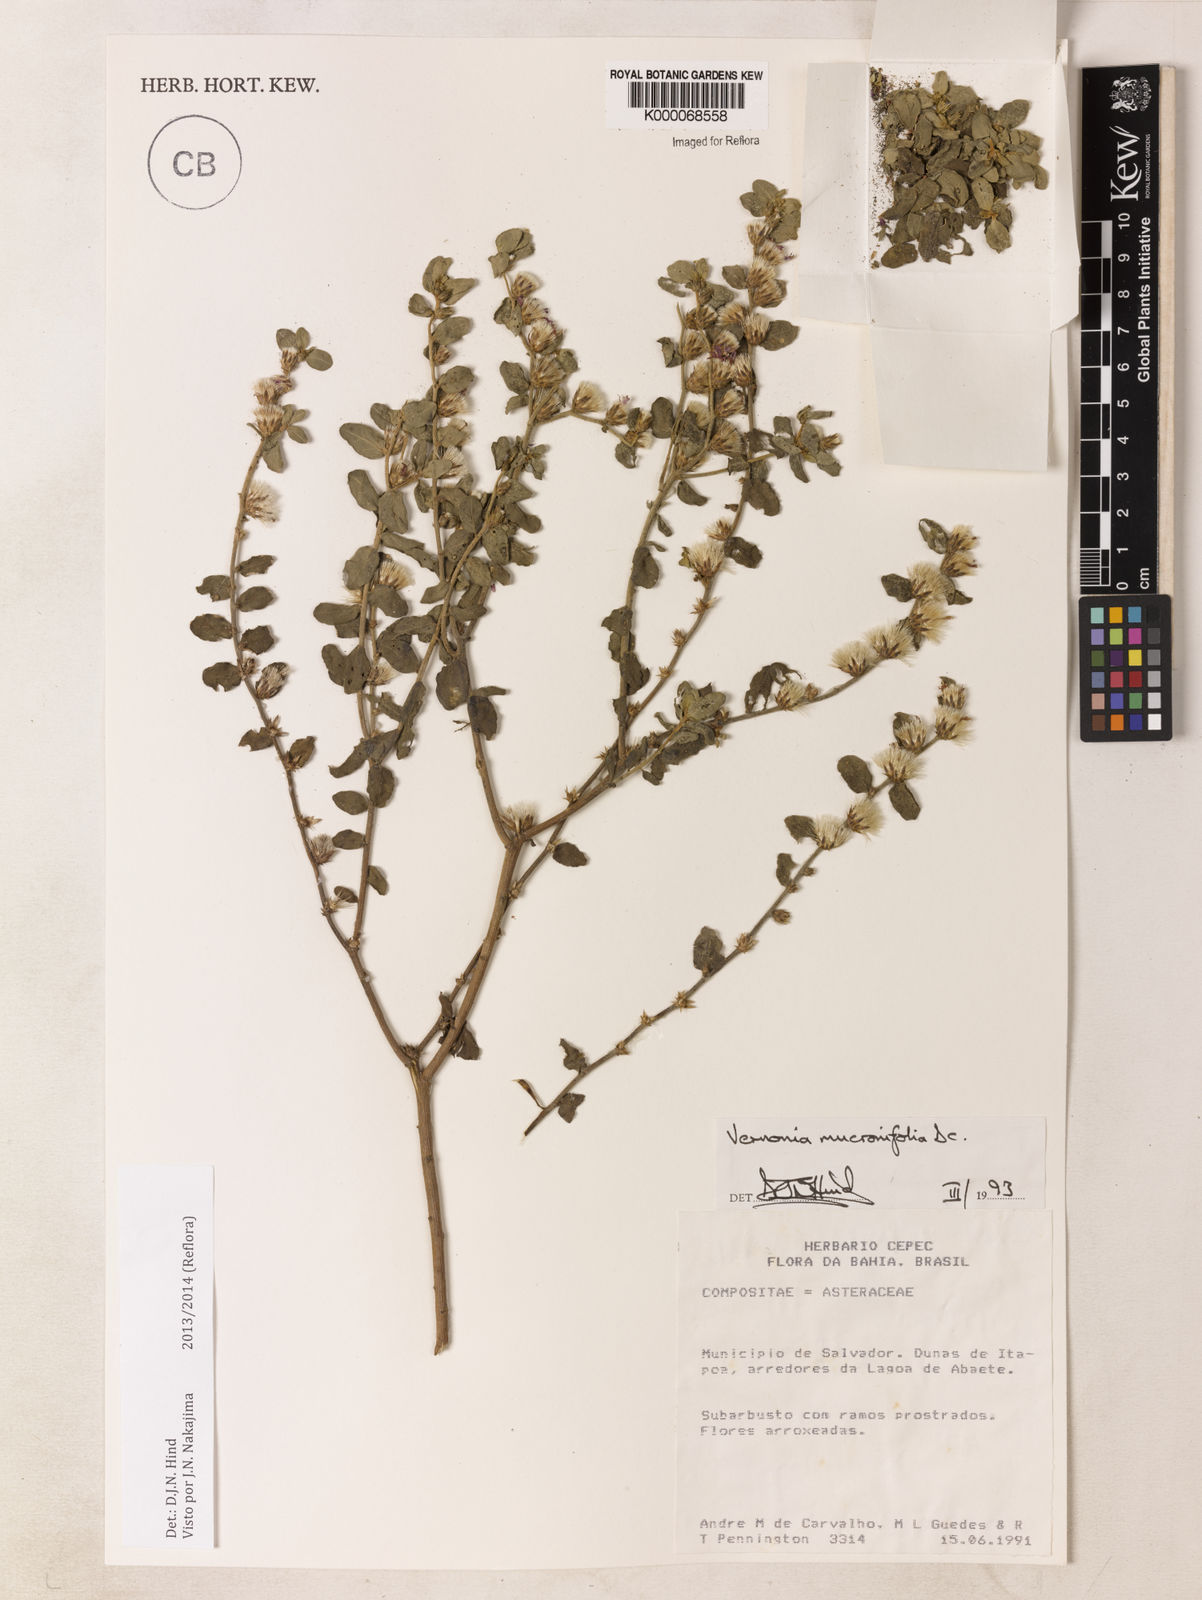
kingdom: Plantae
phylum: Tracheophyta
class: Magnoliopsida
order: Asterales
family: Asteraceae
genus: Lepidaploa
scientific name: Lepidaploa mucronifolia
